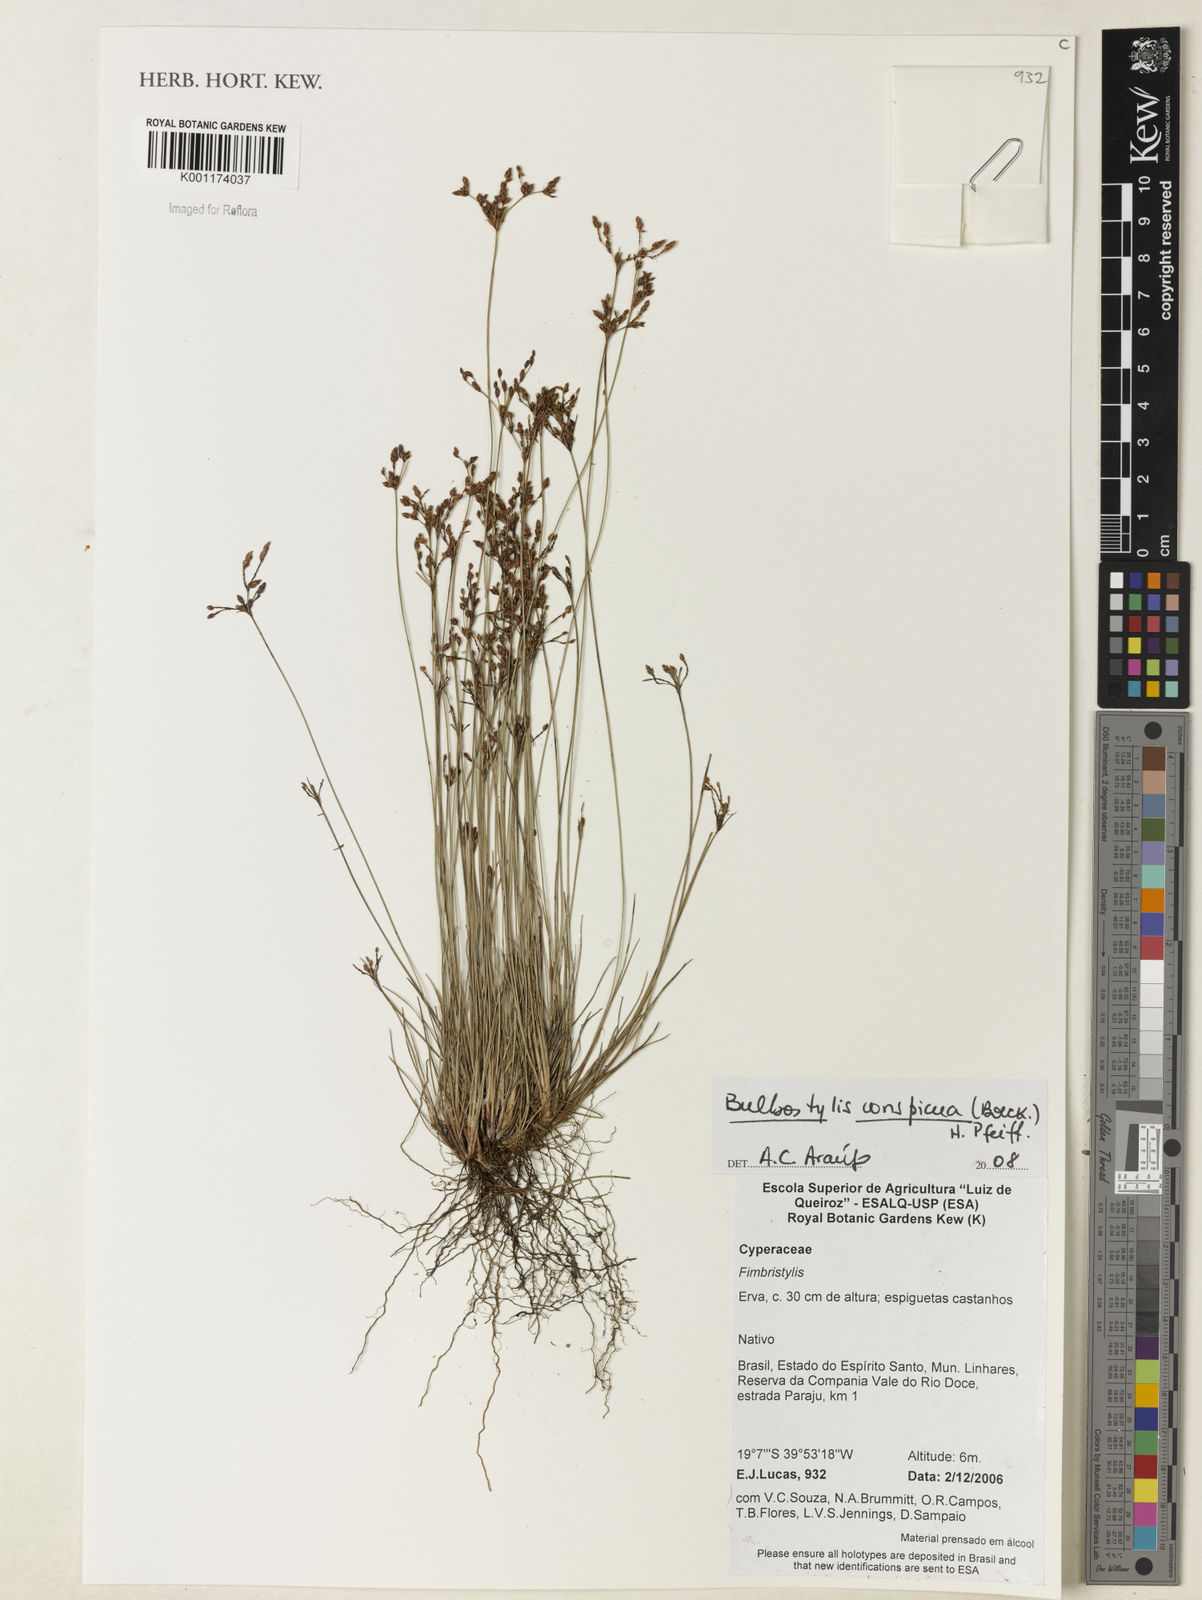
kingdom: Plantae
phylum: Tracheophyta
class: Liliopsida
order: Poales
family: Cyperaceae
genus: Bulbostylis
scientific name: Bulbostylis conspicua
